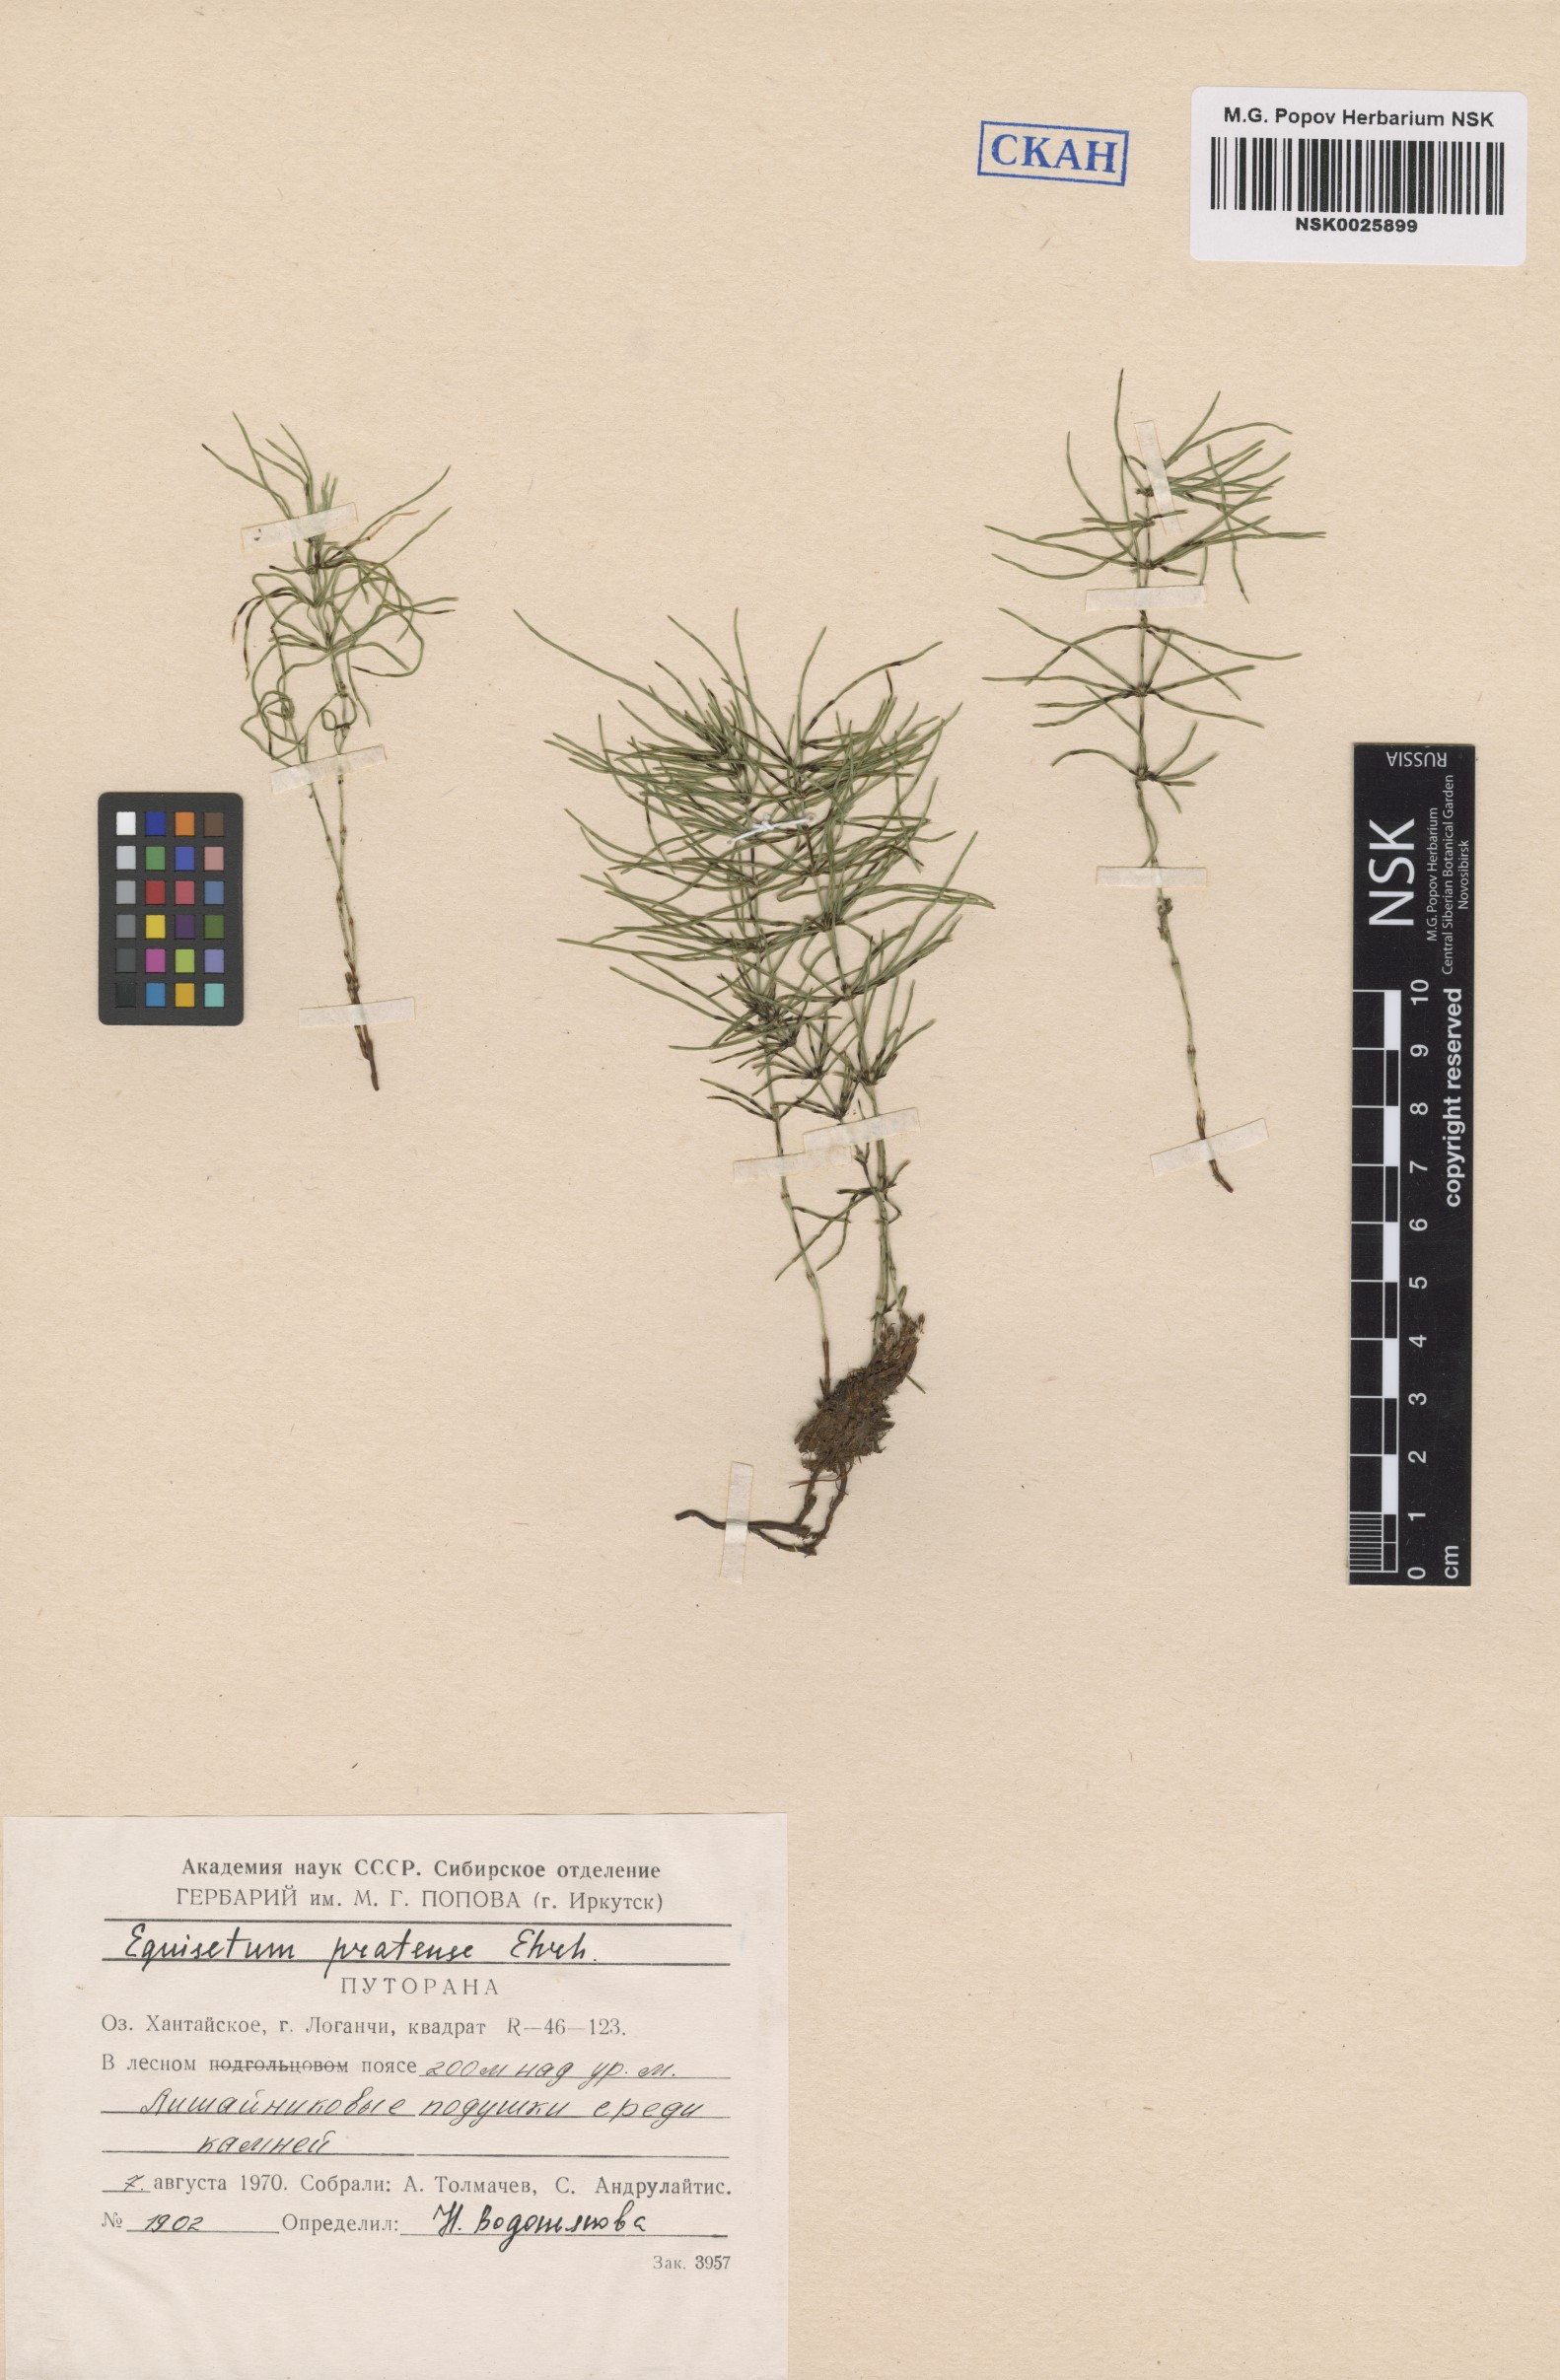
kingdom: Plantae
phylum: Tracheophyta
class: Polypodiopsida
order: Equisetales
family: Equisetaceae
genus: Equisetum
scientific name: Equisetum pratense
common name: Meadow horsetail
